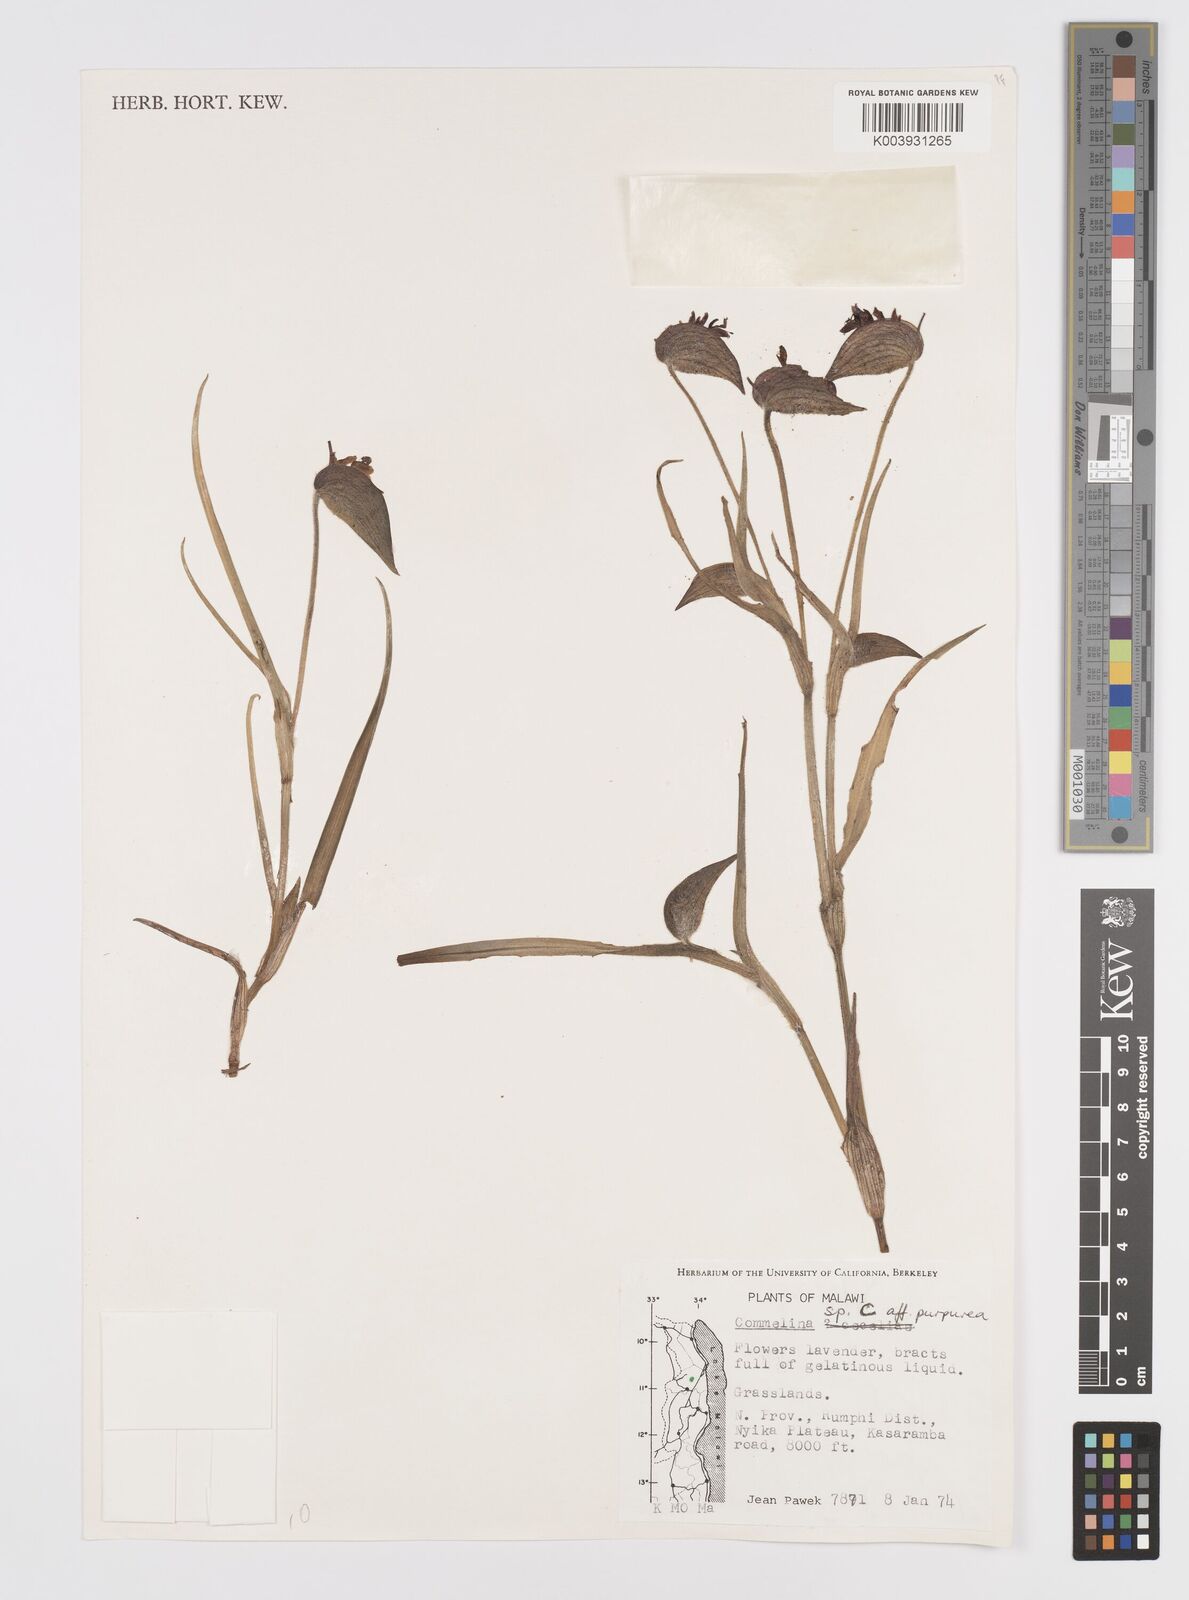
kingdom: Plantae
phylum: Tracheophyta
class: Liliopsida
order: Commelinales
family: Commelinaceae
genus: Commelina
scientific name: Commelina kituloensis
